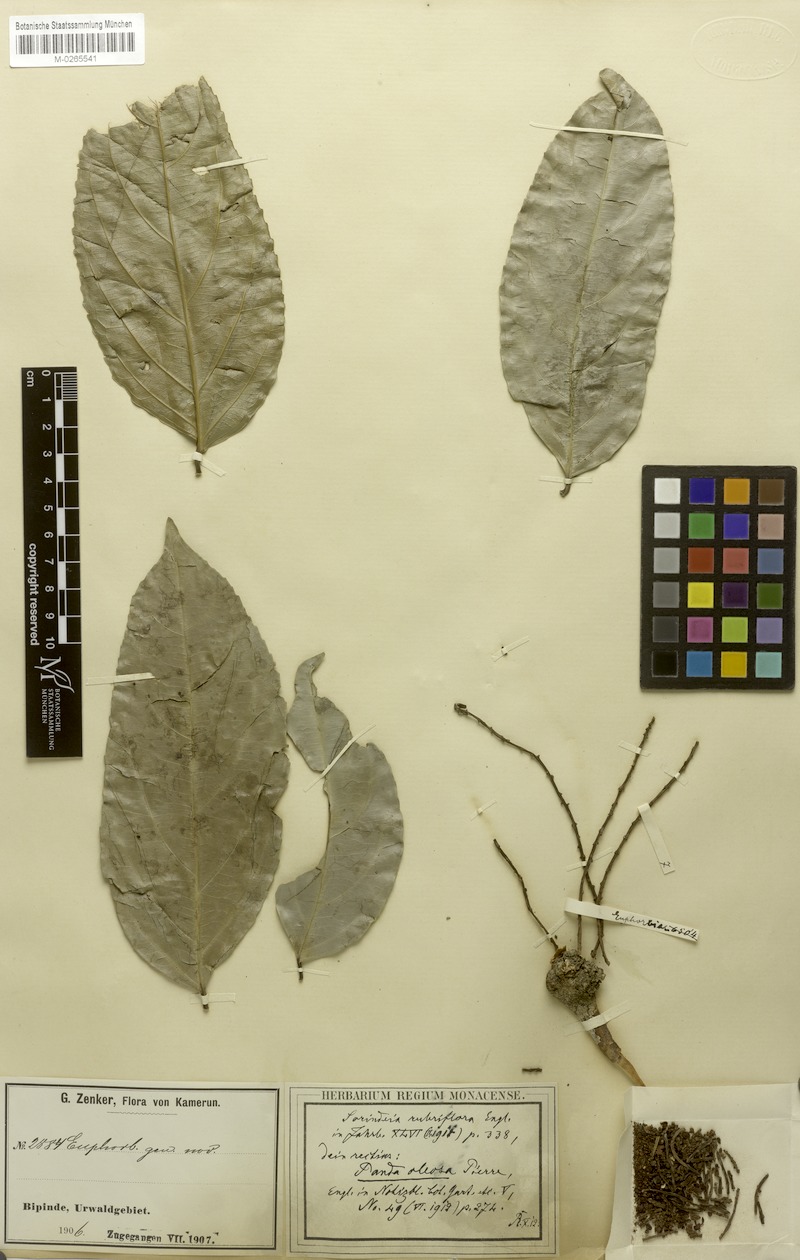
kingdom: Plantae
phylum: Tracheophyta
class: Magnoliopsida
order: Malpighiales
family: Pandaceae
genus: Panda
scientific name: Panda oleosa
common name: Panda
